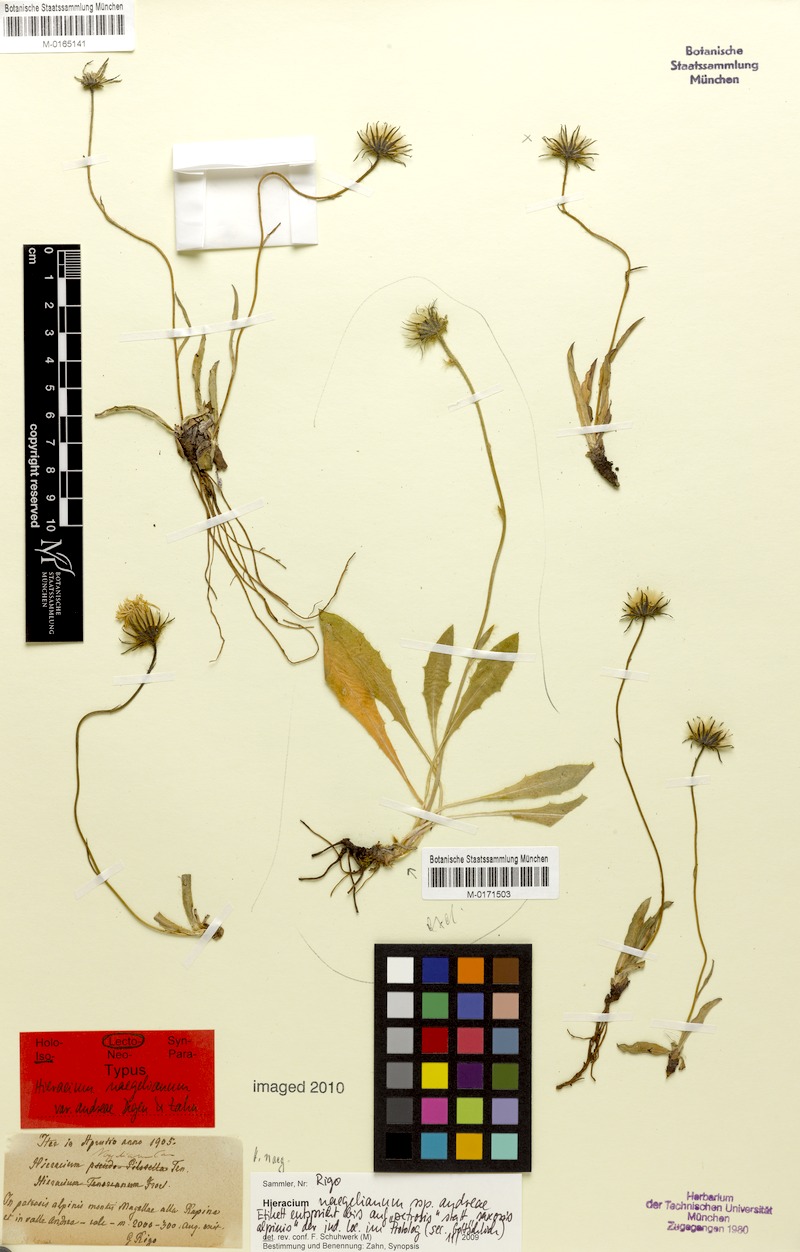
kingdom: Plantae
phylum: Tracheophyta
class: Magnoliopsida
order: Asterales
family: Asteraceae
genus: Hieracium
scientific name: Hieracium
